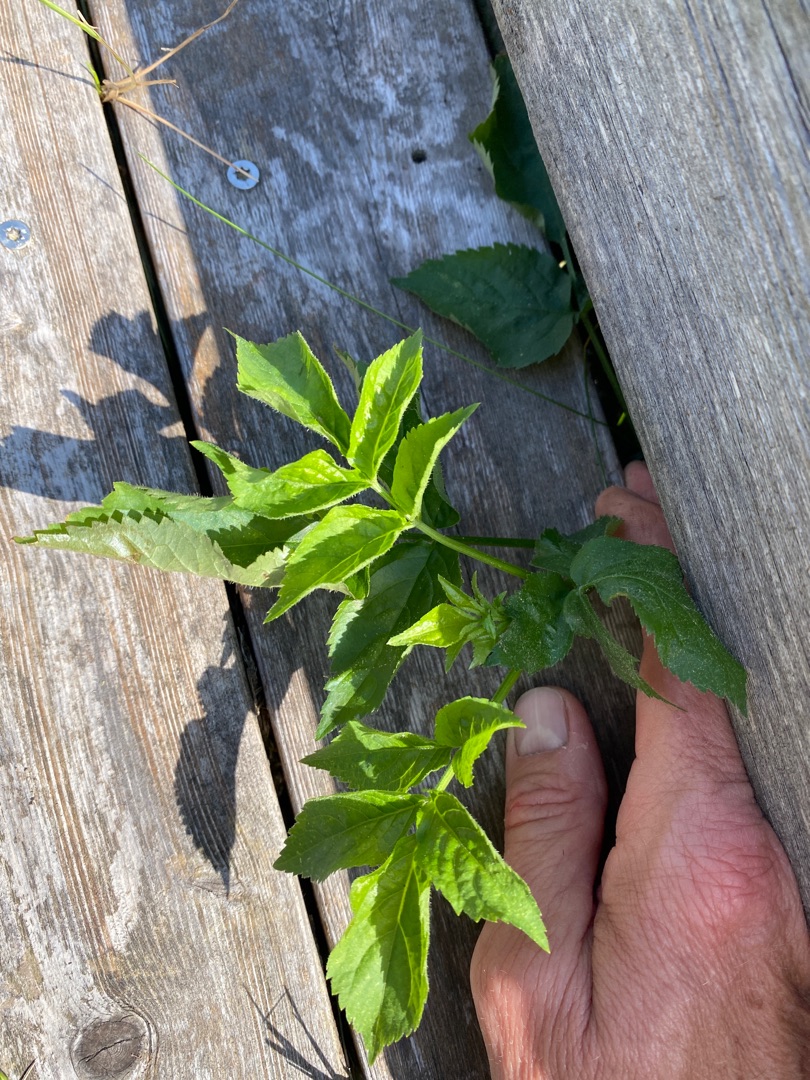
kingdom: Plantae
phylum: Tracheophyta
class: Magnoliopsida
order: Dipsacales
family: Viburnaceae
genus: Sambucus
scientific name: Sambucus nigra
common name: Almindelig hyld
